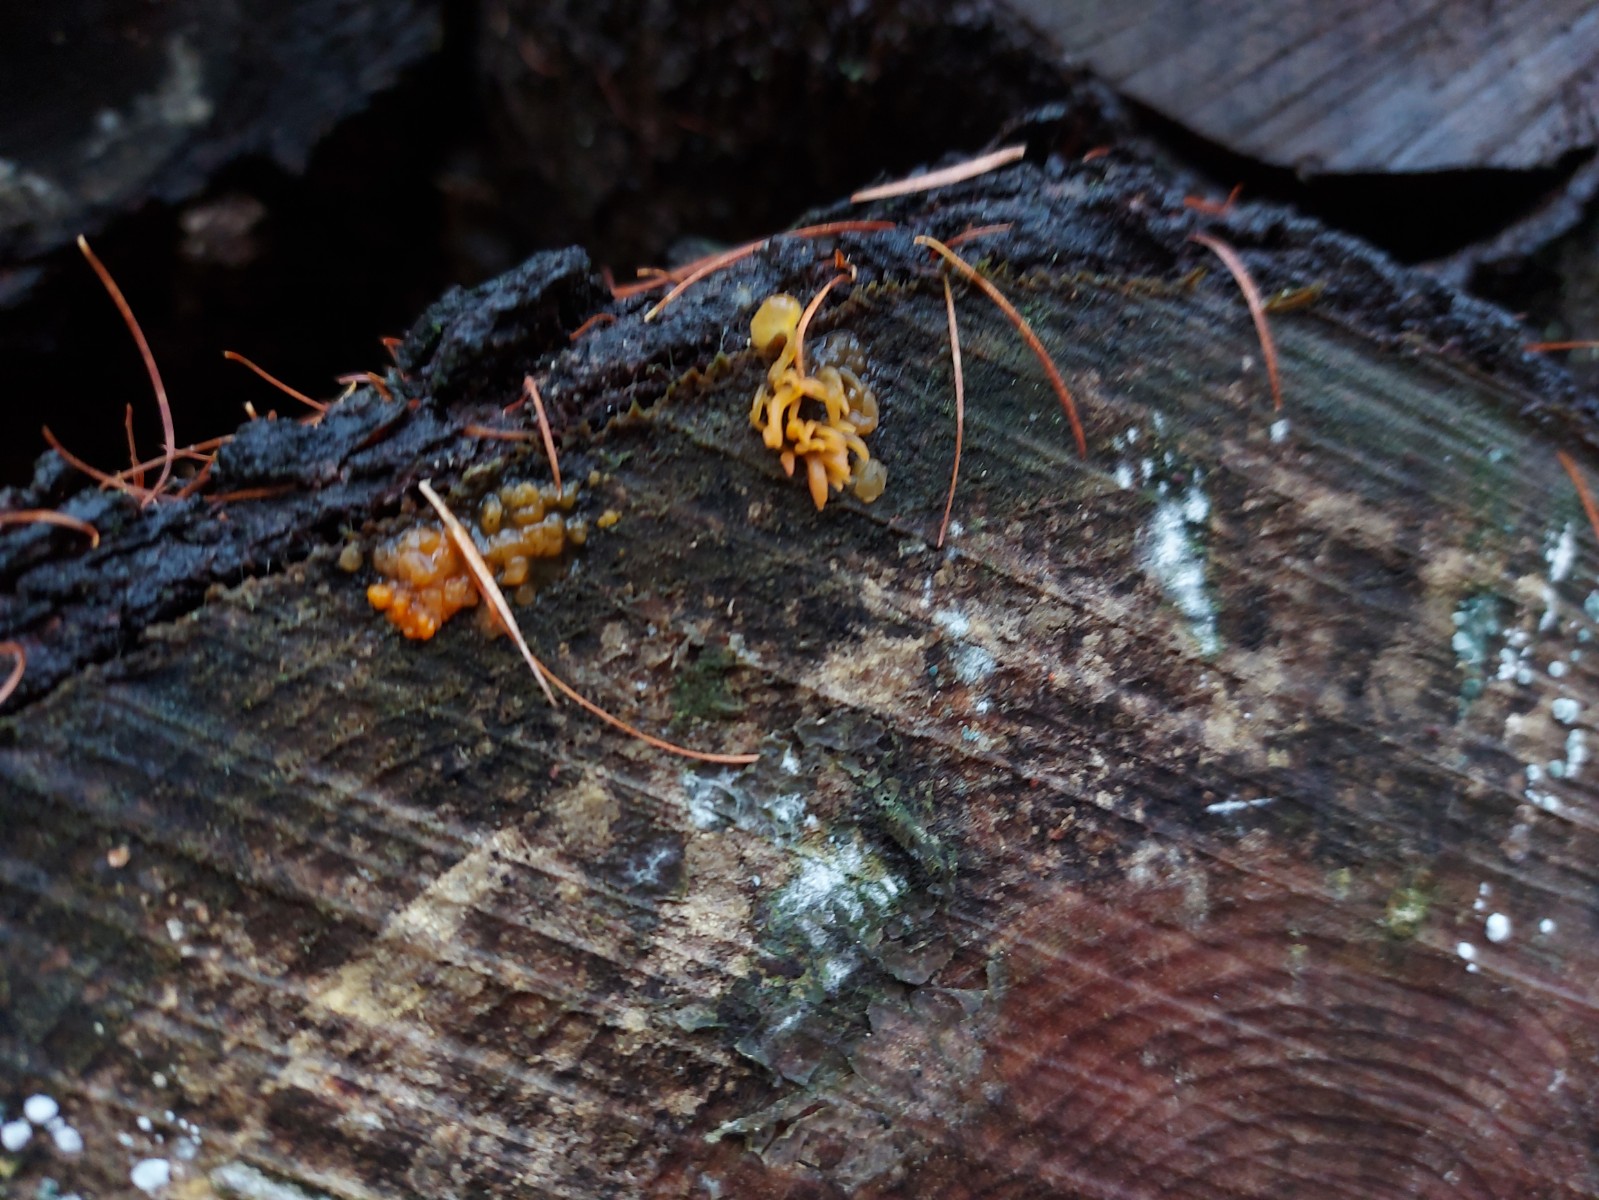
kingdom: Fungi
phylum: Basidiomycota
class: Dacrymycetes
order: Dacrymycetales
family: Dacrymycetaceae
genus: Calocera
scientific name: Calocera
